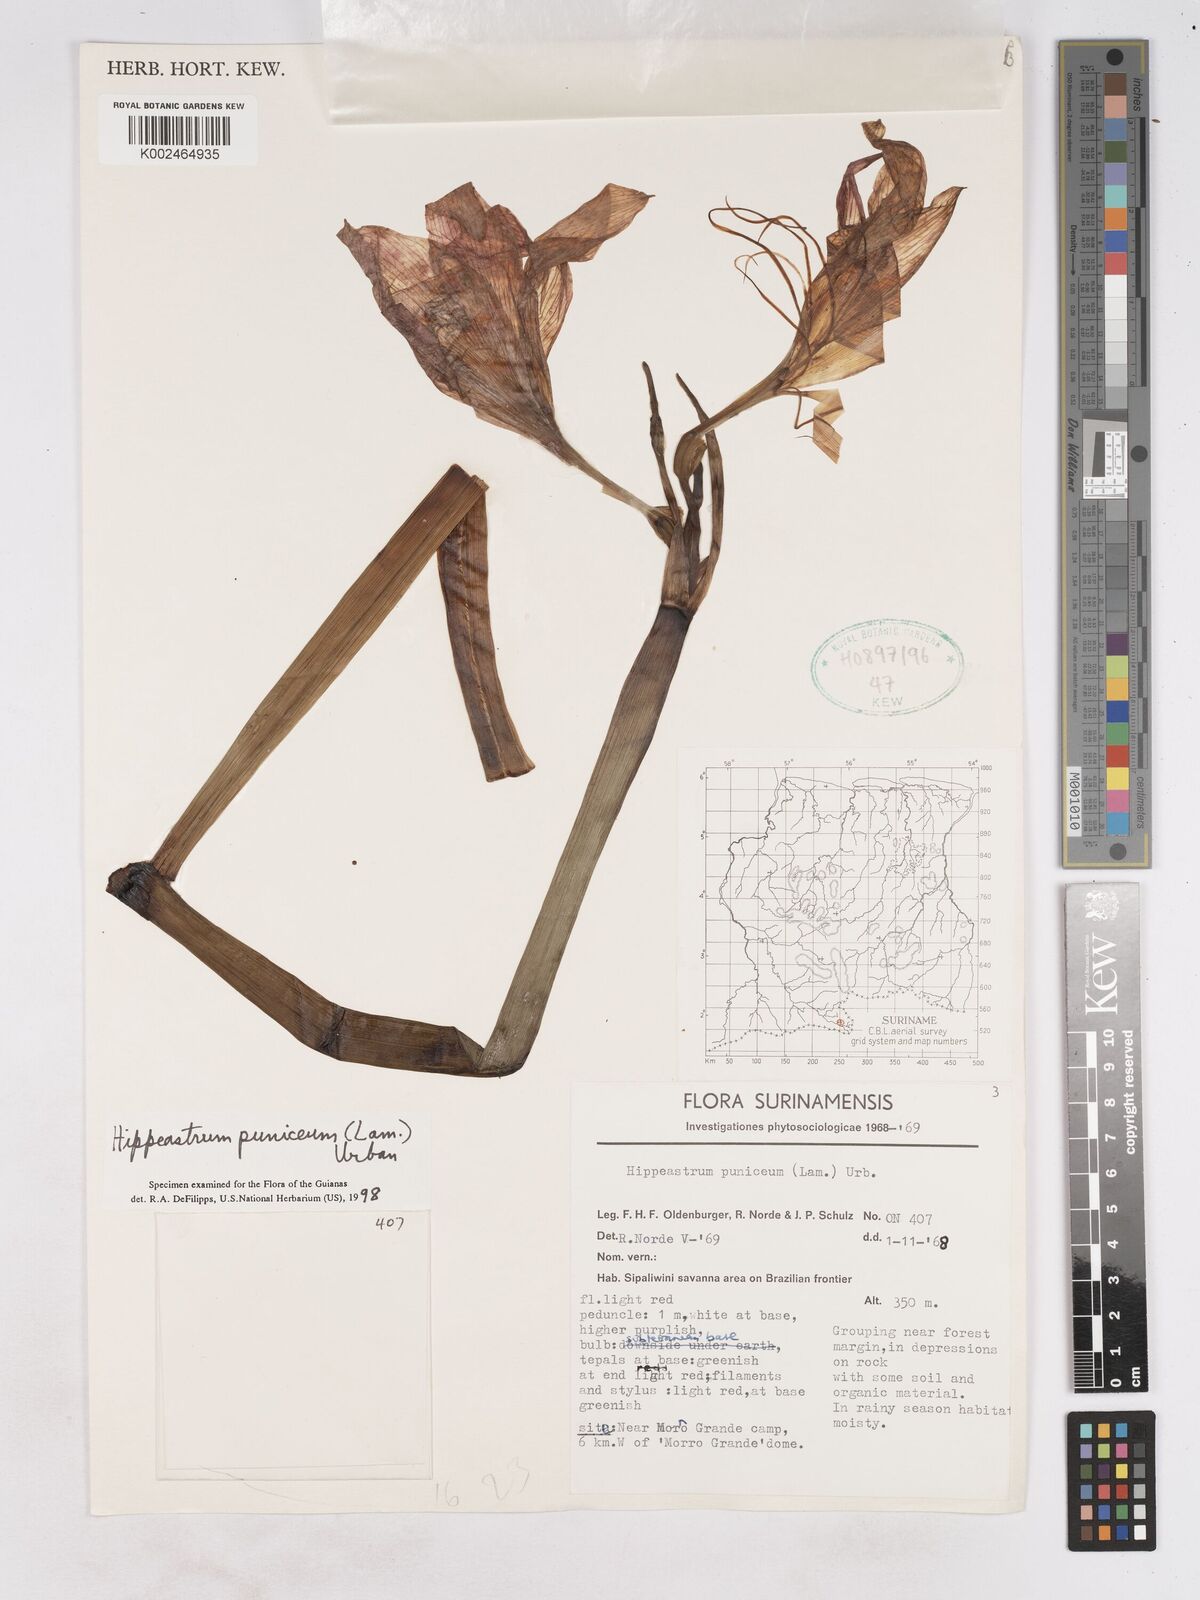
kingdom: Plantae
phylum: Tracheophyta
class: Liliopsida
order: Asparagales
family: Amaryllidaceae
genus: Hippeastrum
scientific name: Hippeastrum puniceum
